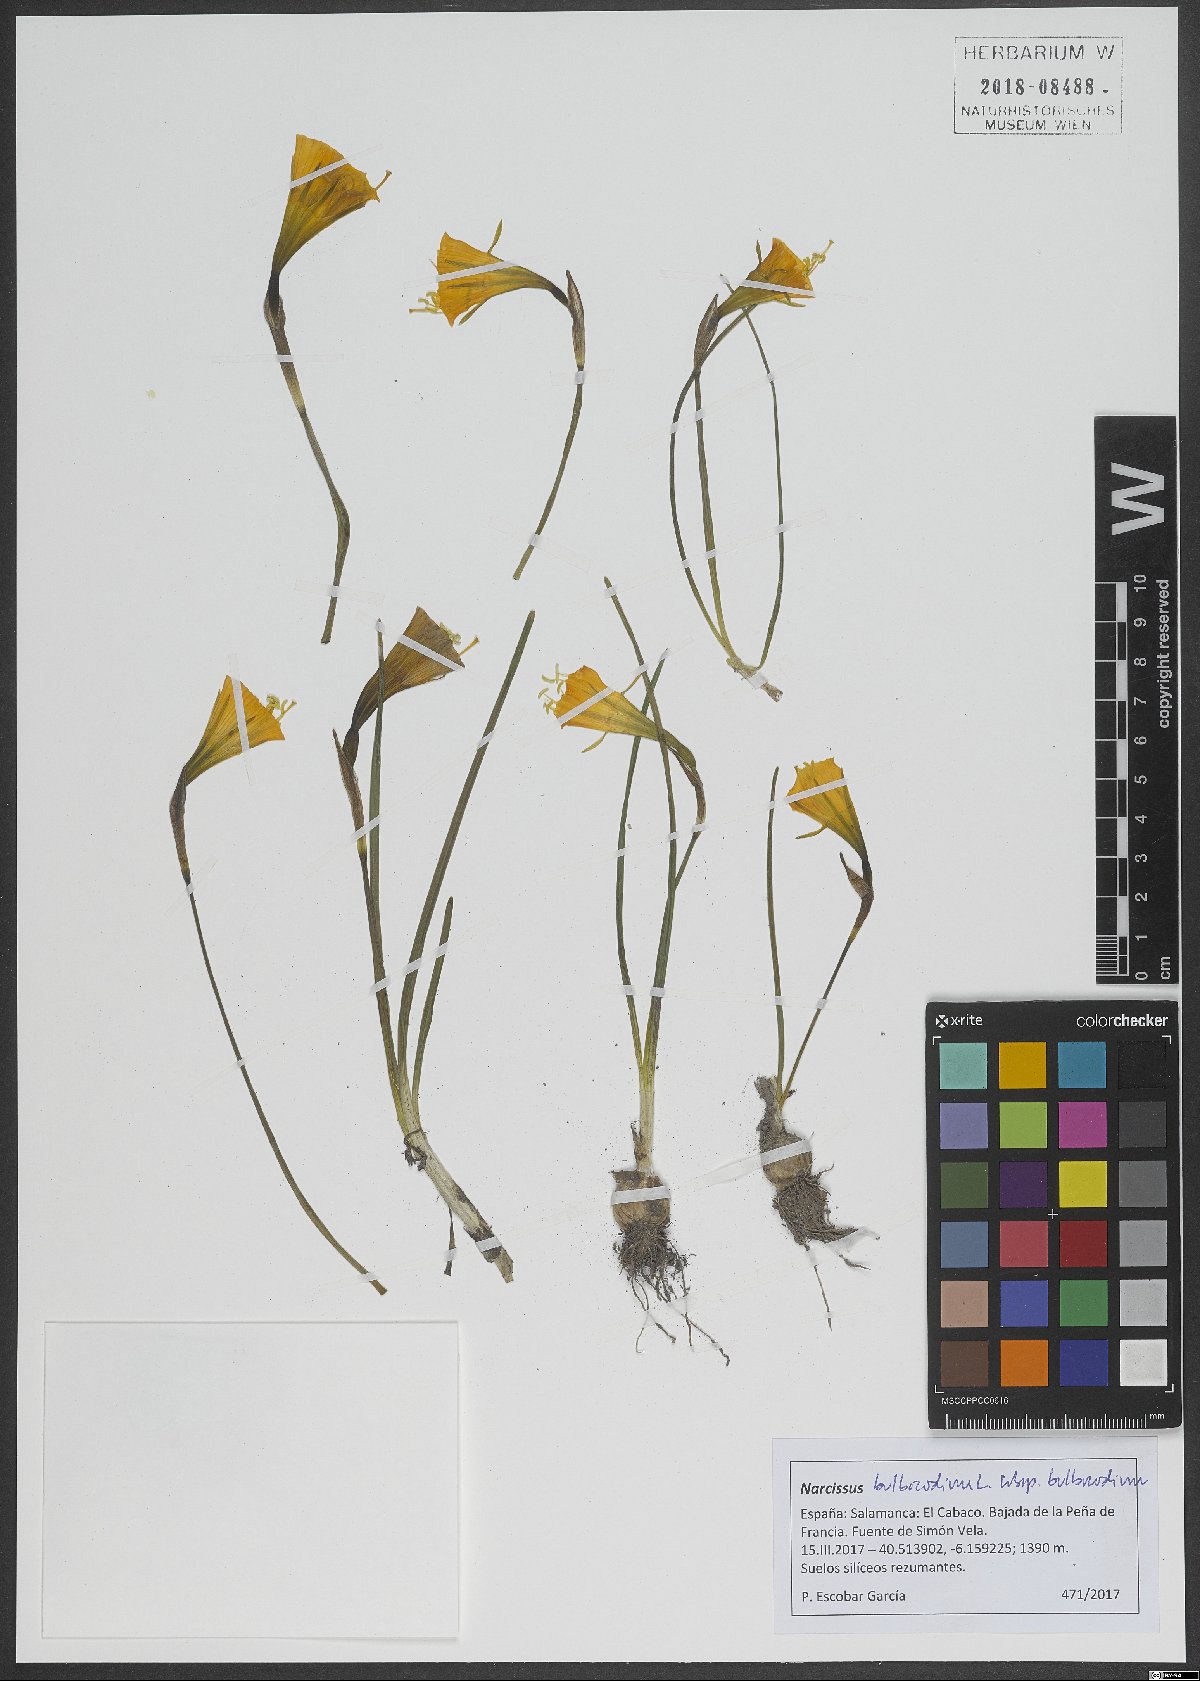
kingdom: Plantae
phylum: Tracheophyta
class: Liliopsida
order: Asparagales
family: Amaryllidaceae
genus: Narcissus
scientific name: Narcissus bulbocodium
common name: Hoop-petticoat daffodil
